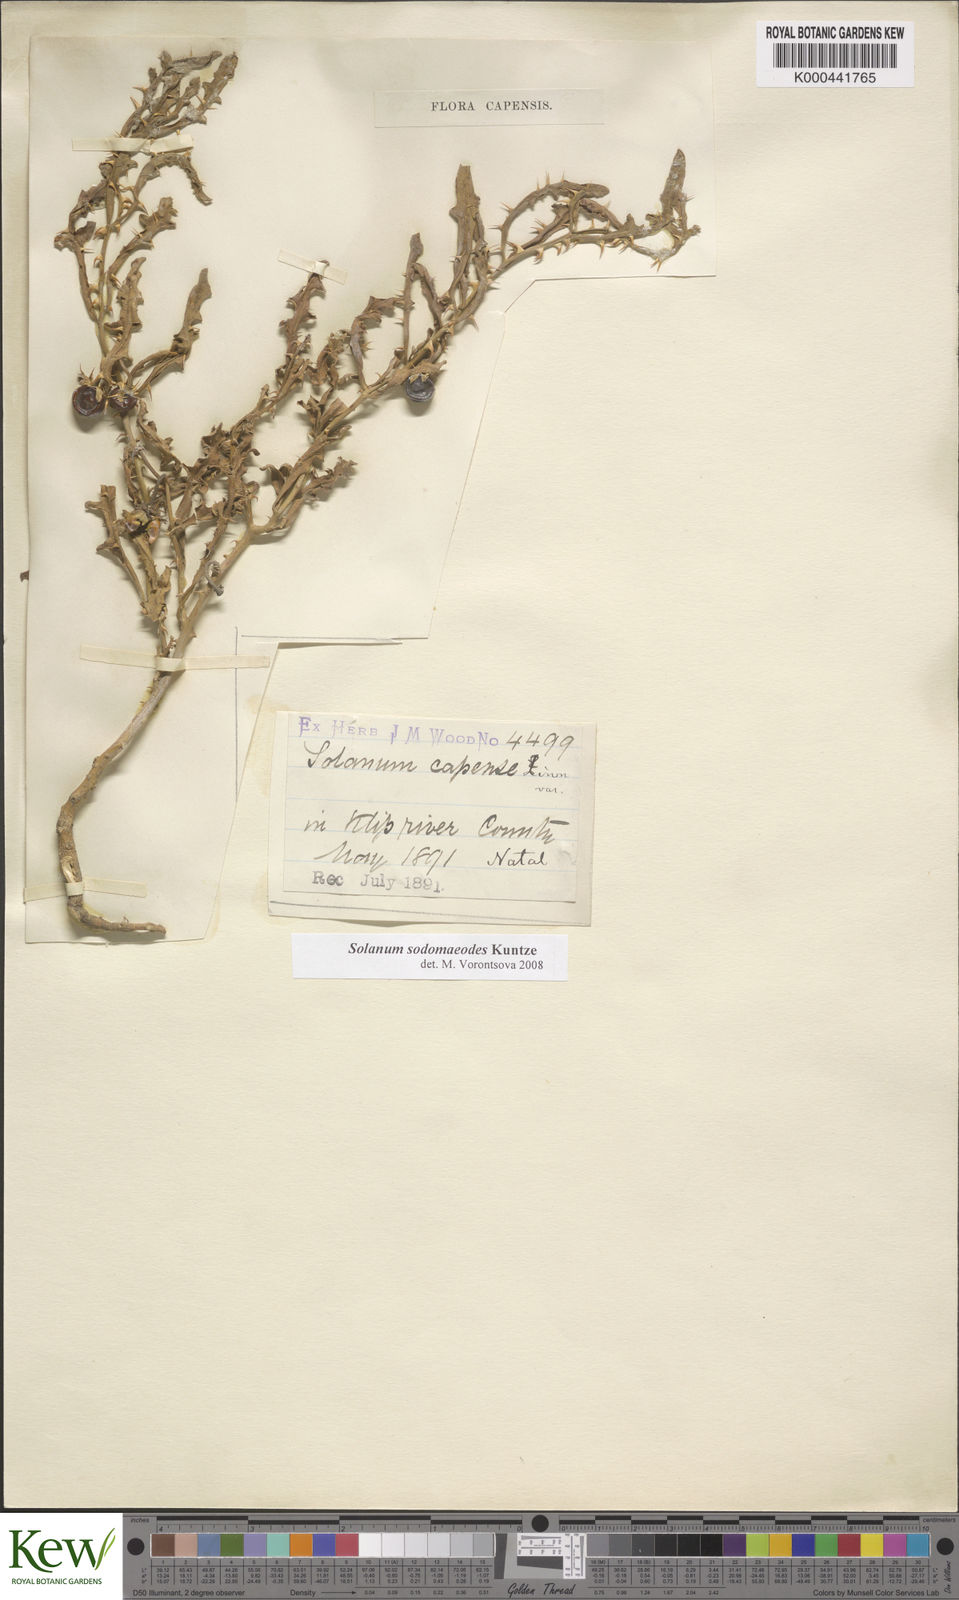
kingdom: Plantae
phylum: Tracheophyta
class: Magnoliopsida
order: Solanales
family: Solanaceae
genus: Solanum
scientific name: Solanum
